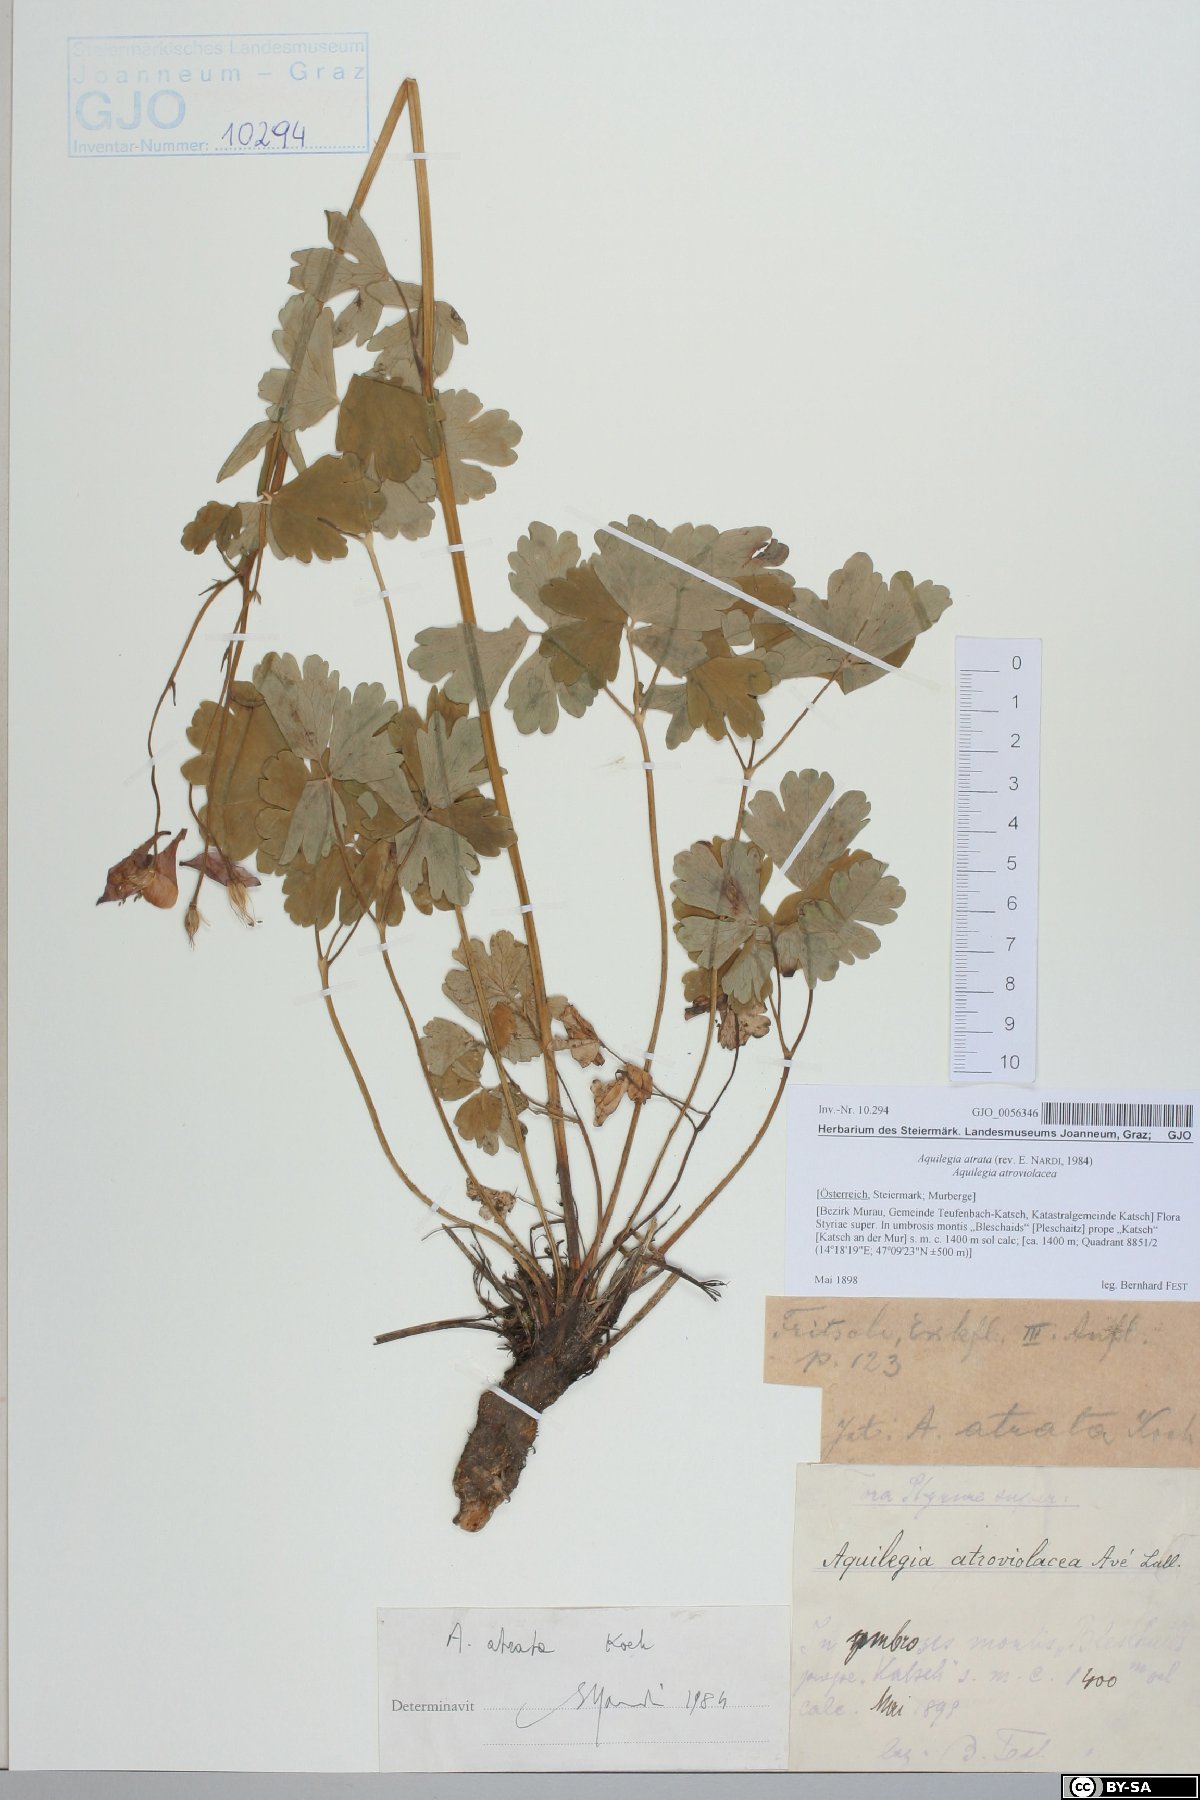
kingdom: Plantae
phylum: Tracheophyta
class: Magnoliopsida
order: Ranunculales
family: Ranunculaceae
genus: Aquilegia
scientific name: Aquilegia atrata
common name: Dark columbine
